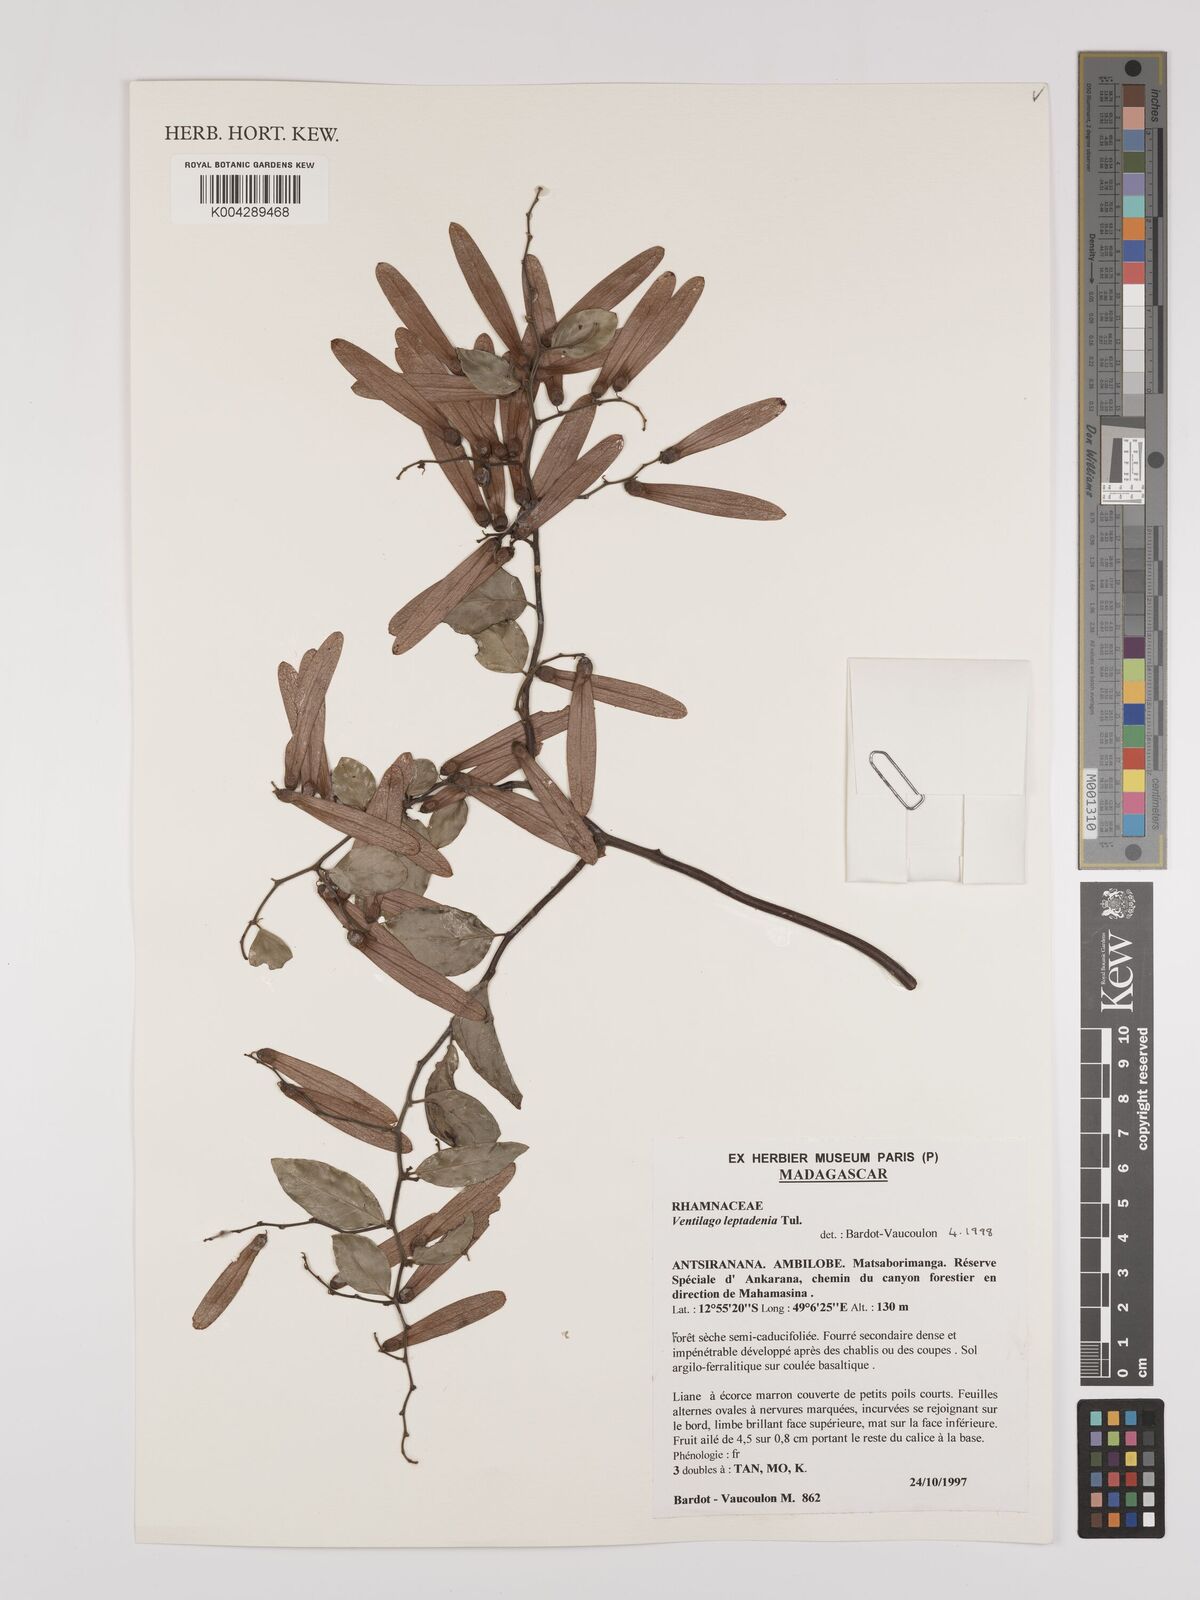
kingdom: Plantae
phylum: Tracheophyta
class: Magnoliopsida
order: Rosales
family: Rhamnaceae
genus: Ventilago
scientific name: Ventilago leptadenia
